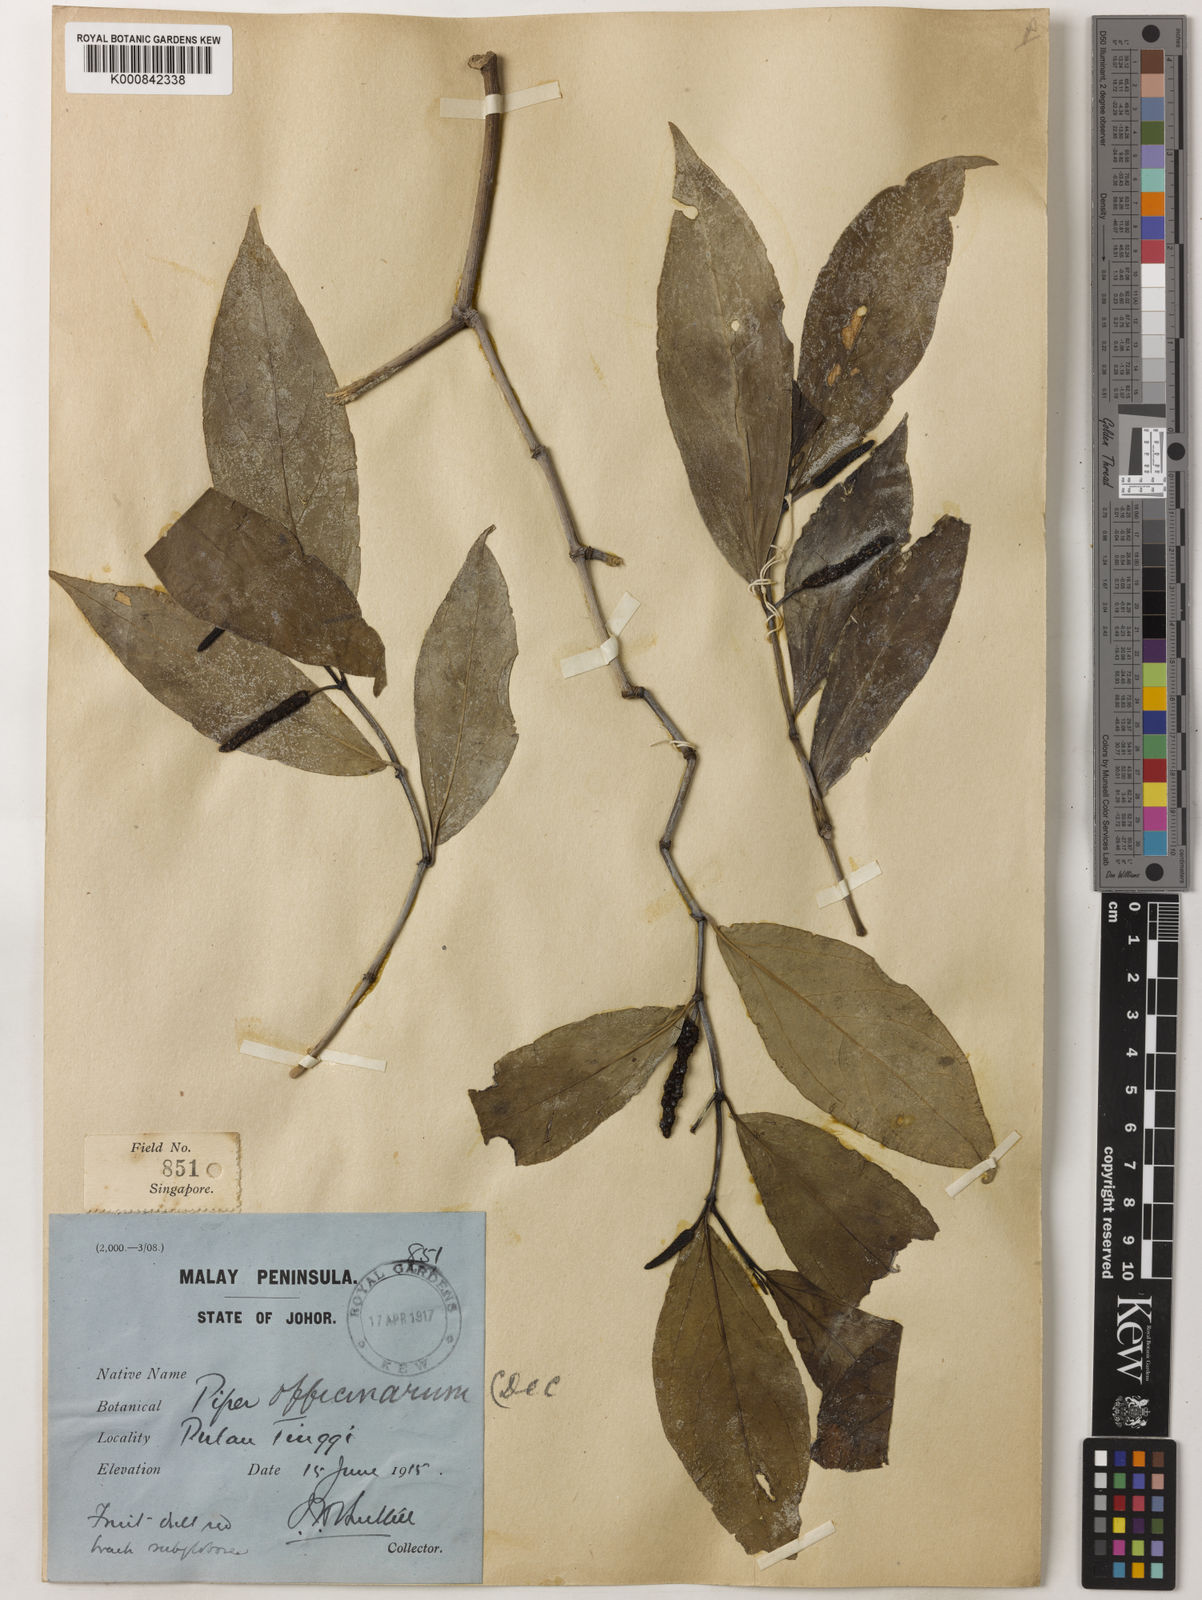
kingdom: Plantae
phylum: Tracheophyta
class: Magnoliopsida
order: Piperales
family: Piperaceae
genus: Piper
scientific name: Piper retrofractum
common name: Javanese long pepper
